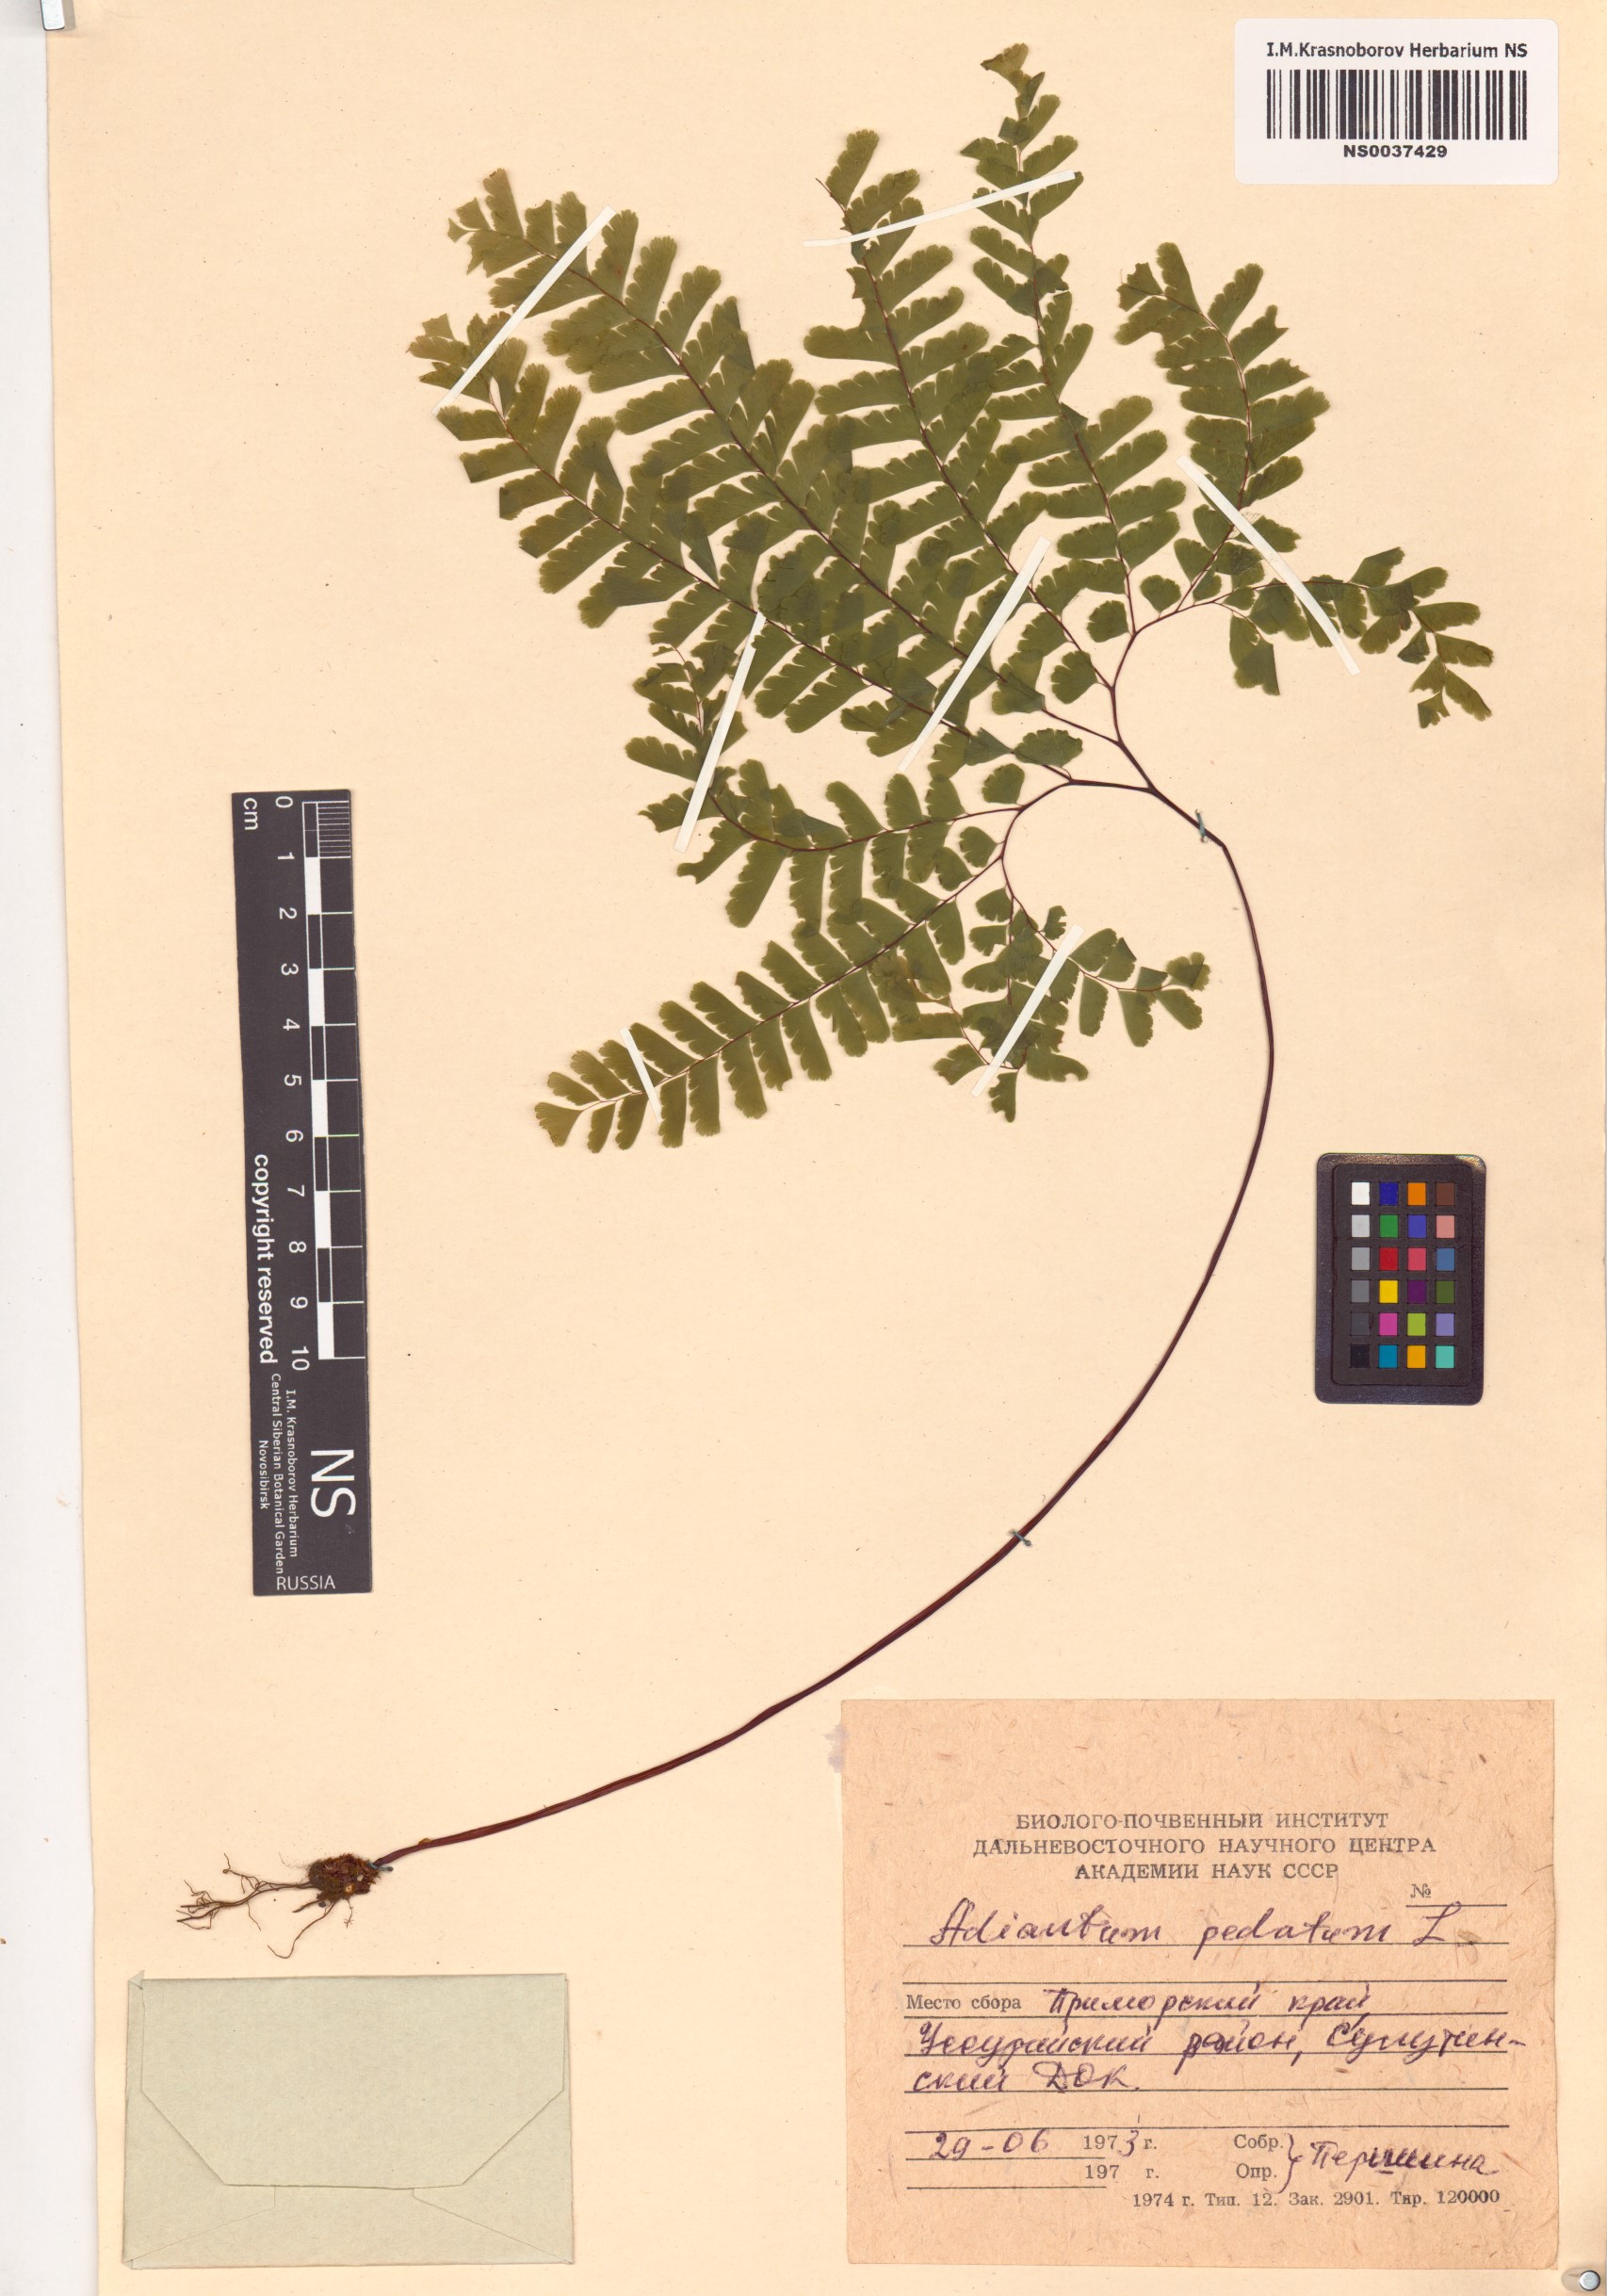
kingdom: Plantae
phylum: Tracheophyta
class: Polypodiopsida
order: Polypodiales
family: Pteridaceae
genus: Adiantum
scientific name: Adiantum pedatum
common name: Five-finger fern
